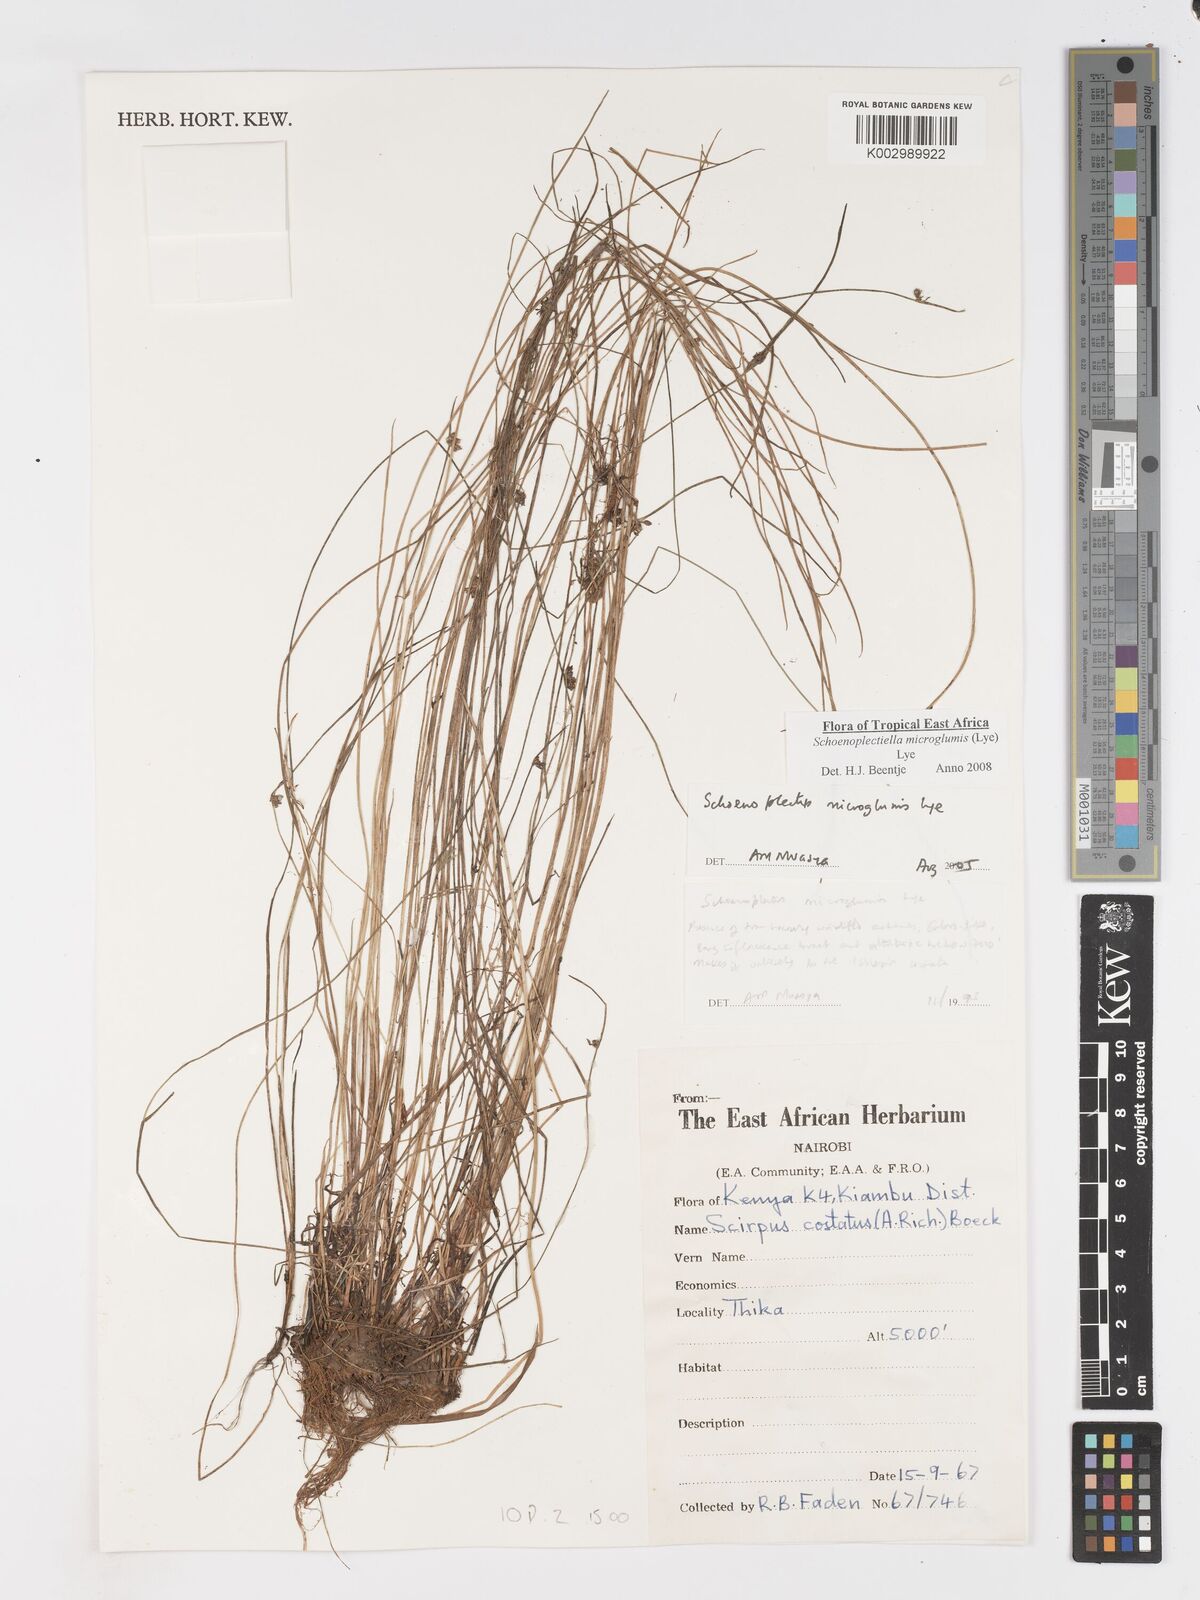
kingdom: Plantae
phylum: Tracheophyta
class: Liliopsida
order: Poales
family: Cyperaceae
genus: Schoenoplectiella
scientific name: Schoenoplectiella microglumis
